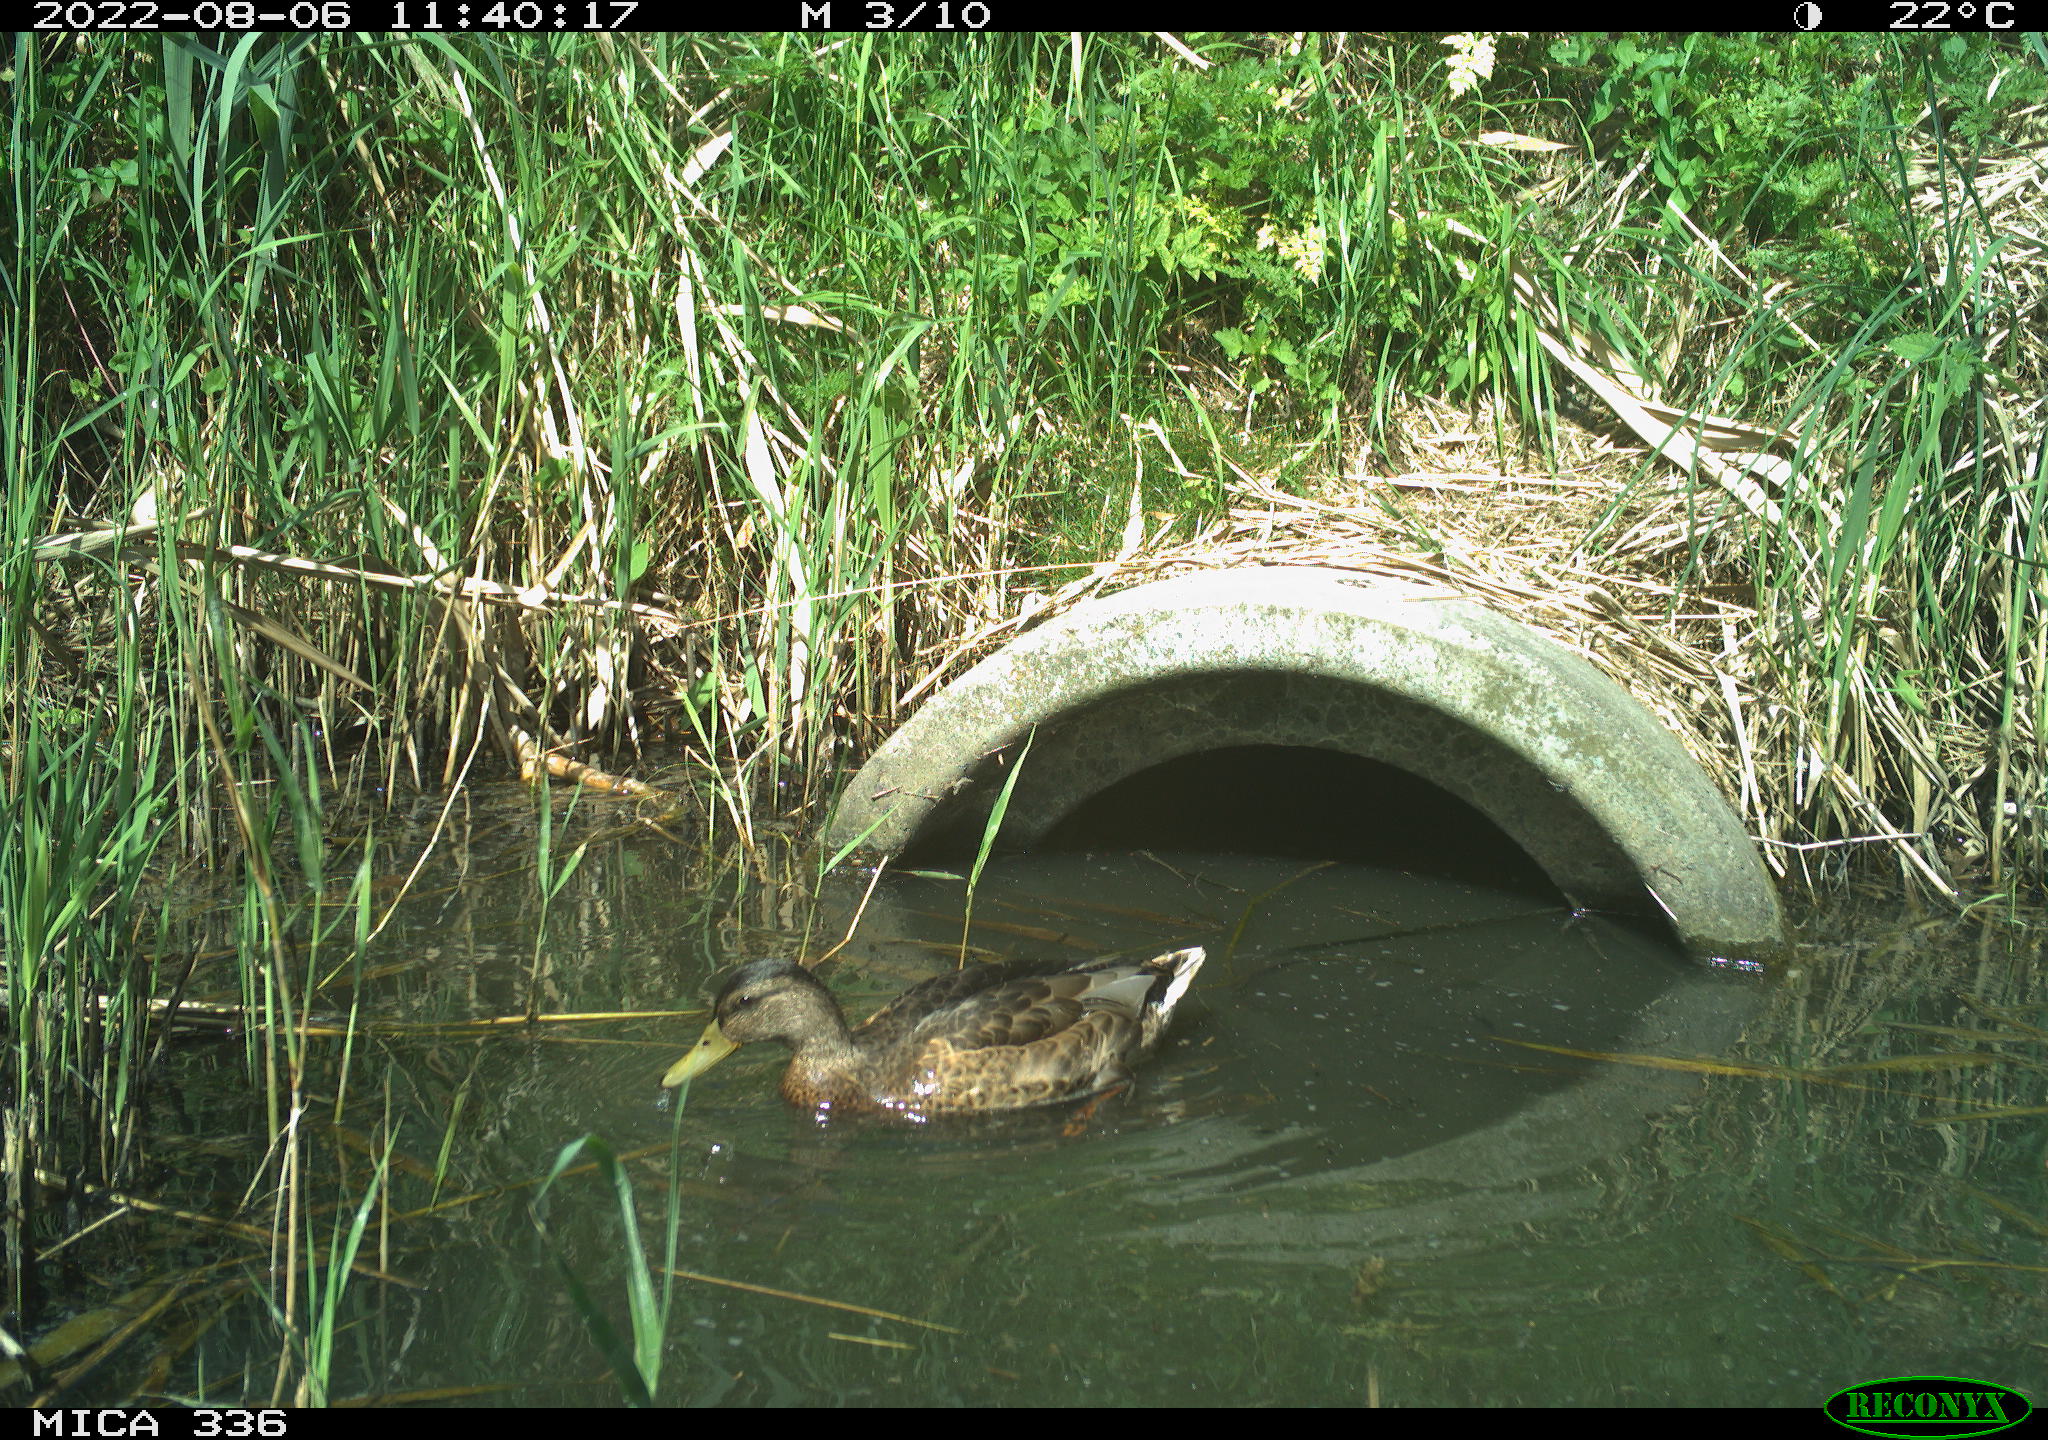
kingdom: Animalia
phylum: Chordata
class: Aves
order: Anseriformes
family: Anatidae
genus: Anas
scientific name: Anas platyrhynchos
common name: Mallard
